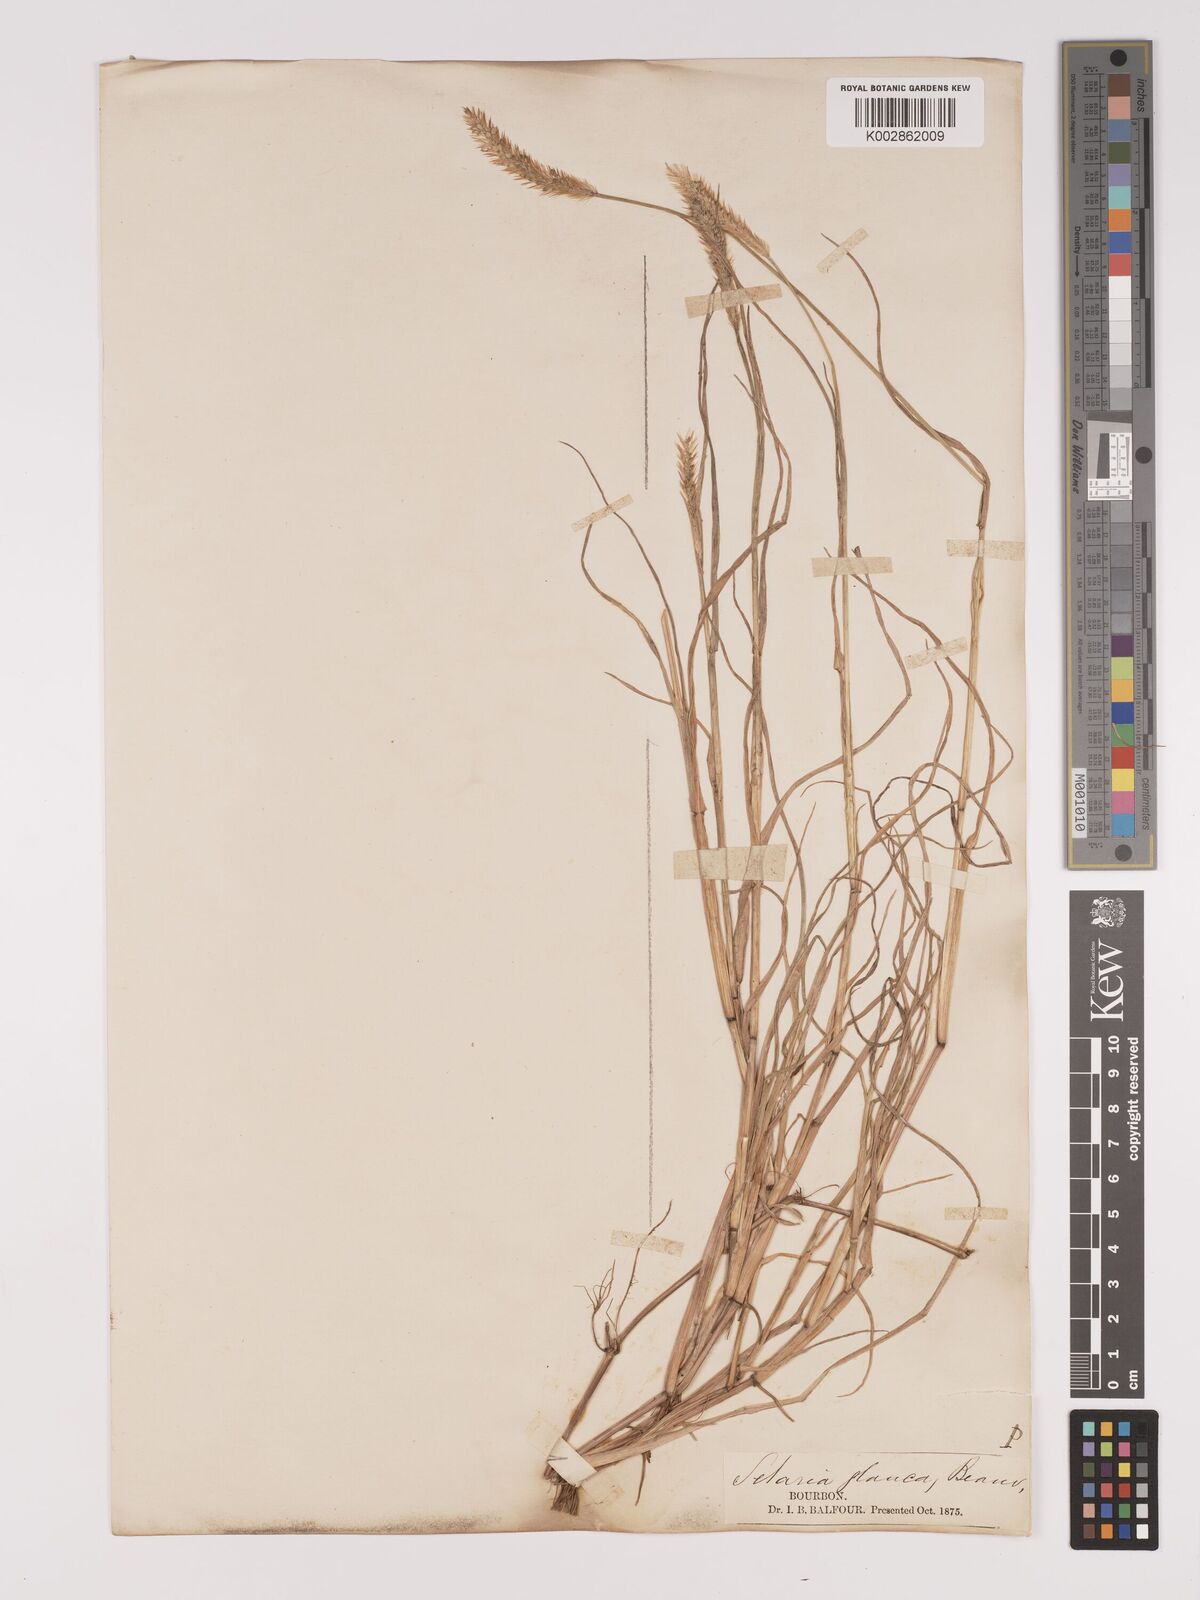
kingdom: Plantae
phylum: Tracheophyta
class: Liliopsida
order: Poales
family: Poaceae
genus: Setaria
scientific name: Setaria pumila
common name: Yellow bristle-grass
